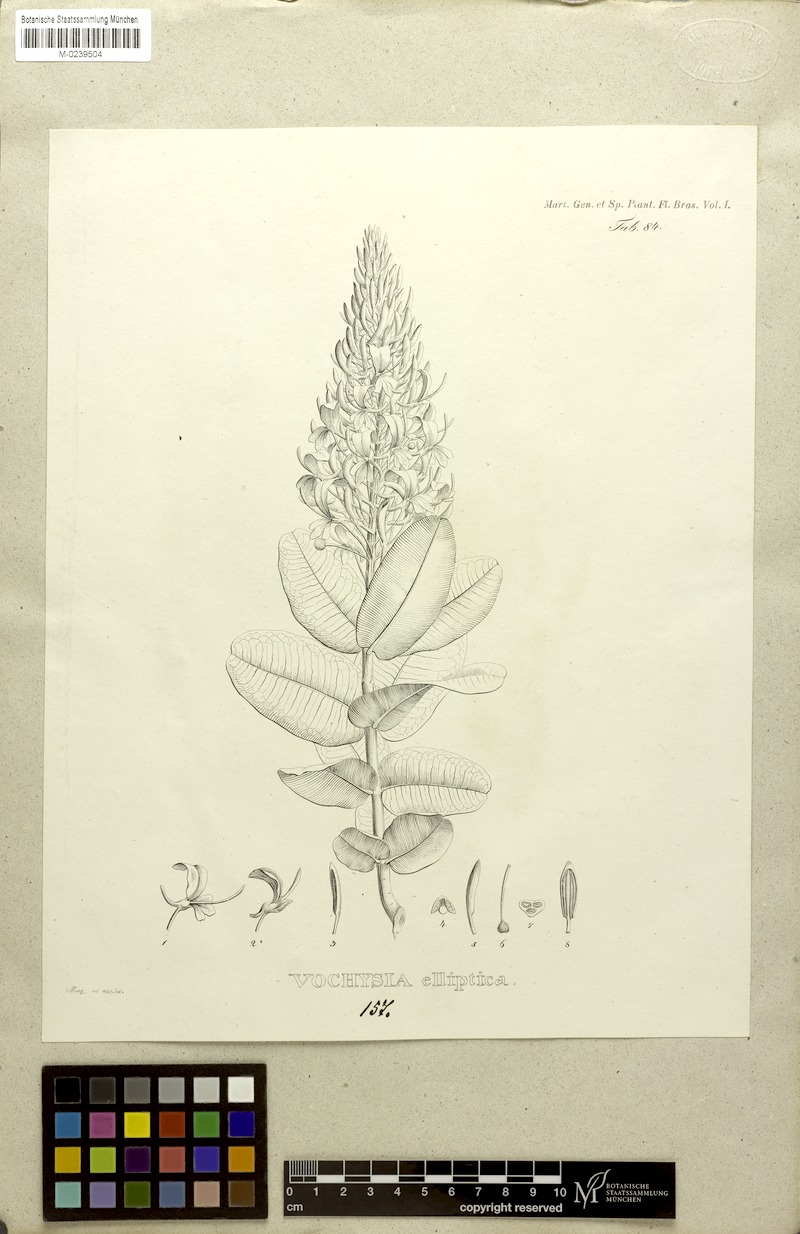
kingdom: Plantae
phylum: Tracheophyta
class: Magnoliopsida
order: Myrtales
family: Vochysiaceae
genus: Vochysia
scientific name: Vochysia elliptica
